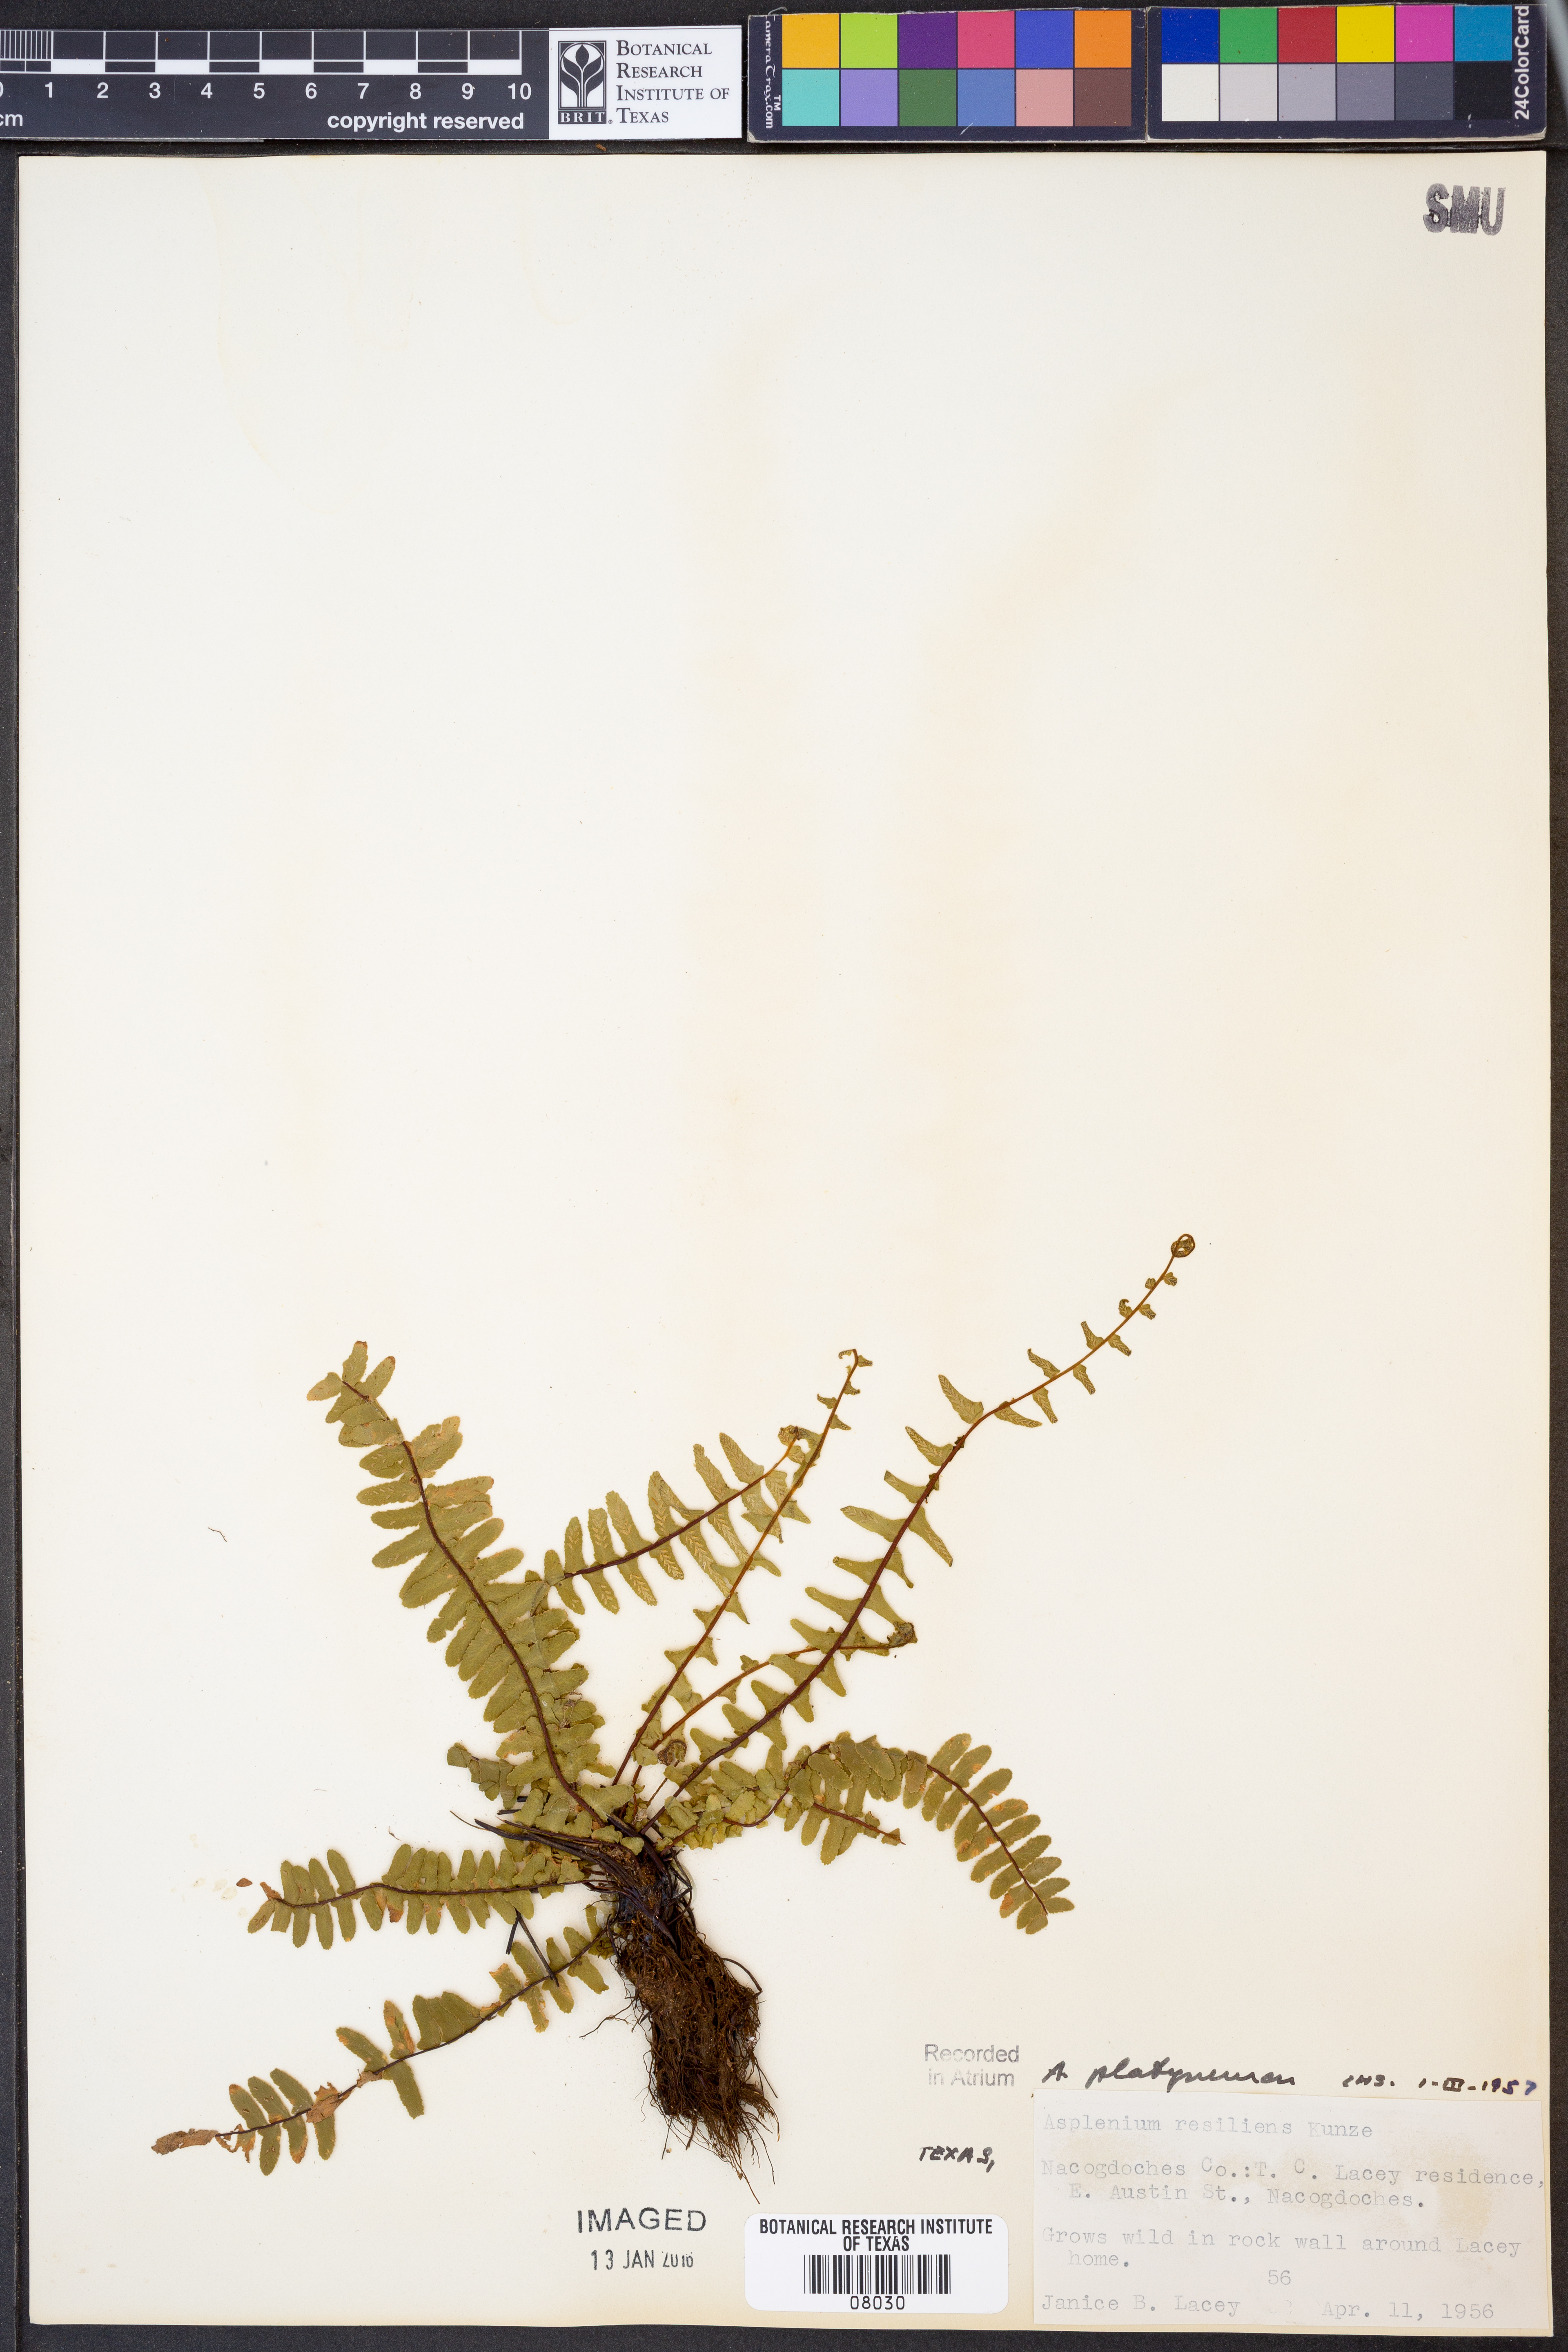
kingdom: Plantae
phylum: Tracheophyta
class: Polypodiopsida
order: Polypodiales
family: Aspleniaceae
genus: Asplenium
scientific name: Asplenium platyneuron
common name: Ebony spleenwort
